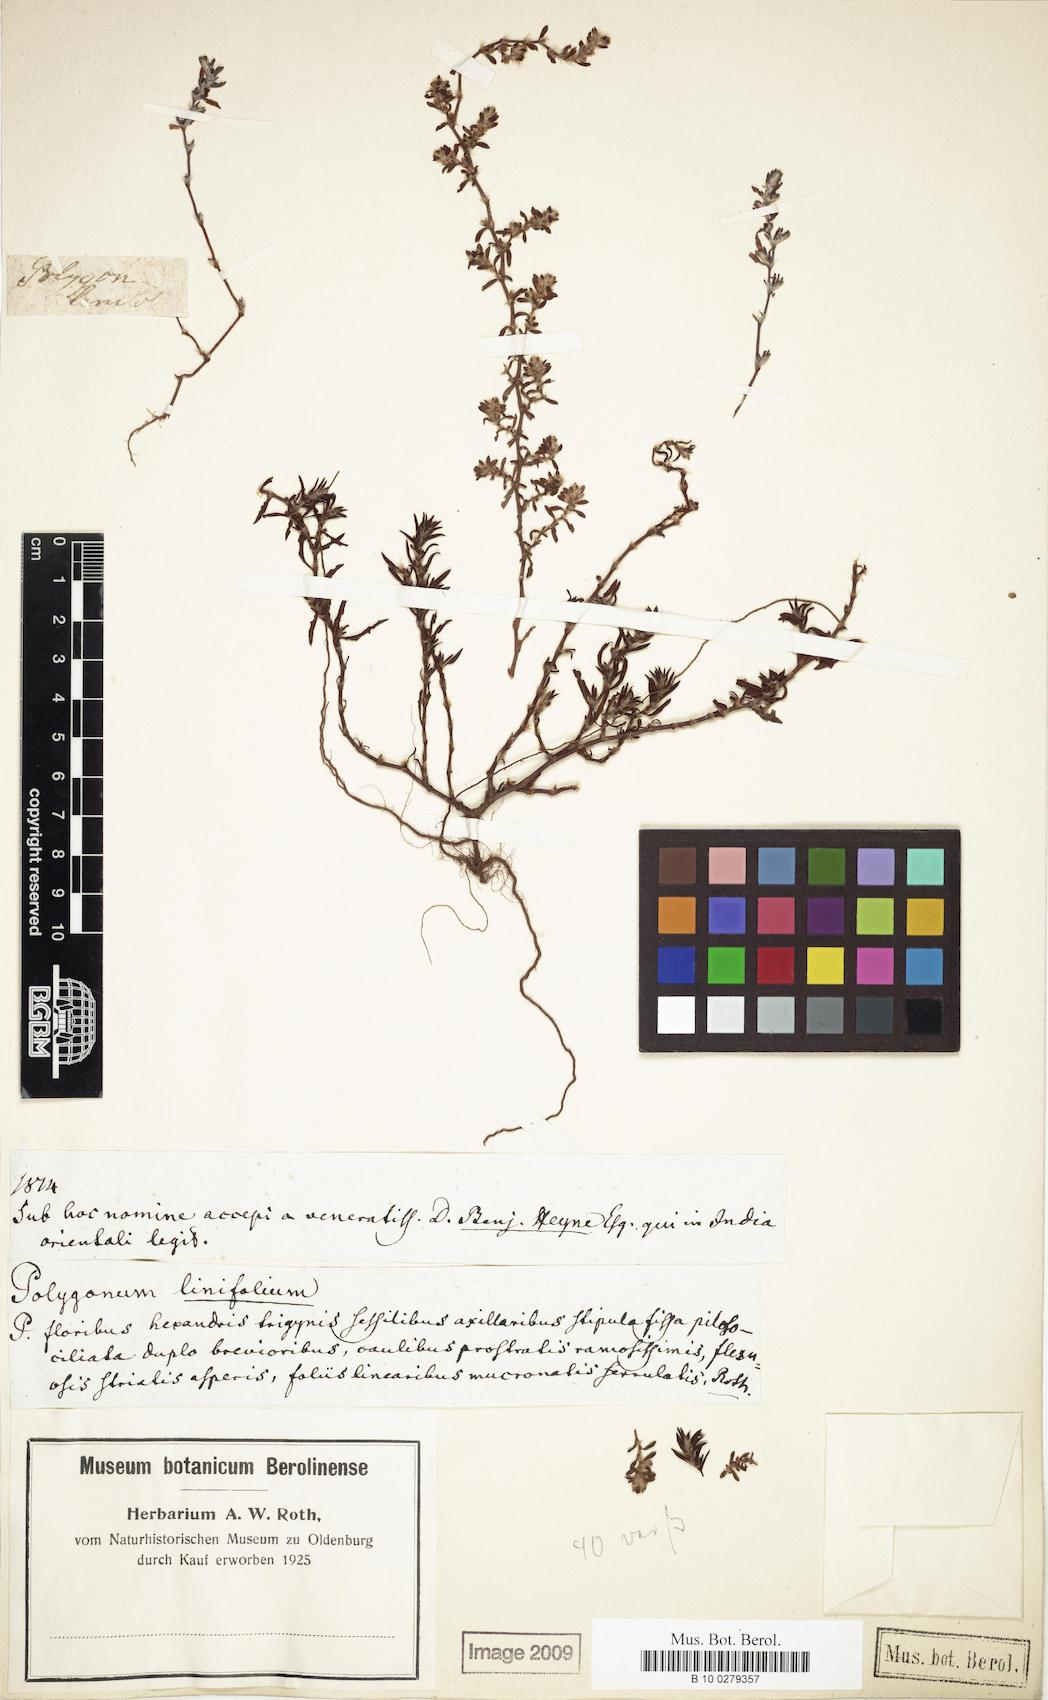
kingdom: Plantae
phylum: Tracheophyta
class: Magnoliopsida
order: Caryophyllales
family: Polygonaceae
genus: Polygonum
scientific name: Polygonum plebeium
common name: Common knotweed
